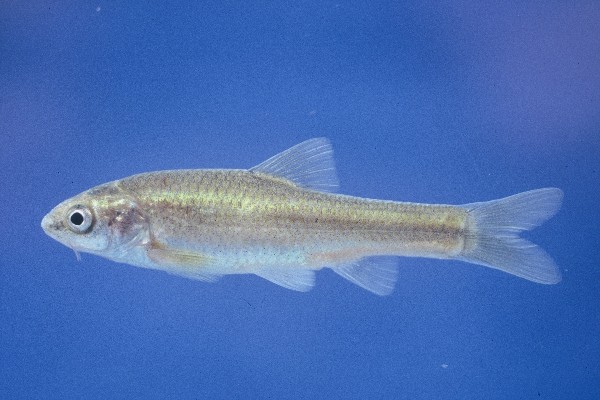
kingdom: Animalia
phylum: Chordata
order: Cypriniformes
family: Cyprinidae
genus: Enteromius
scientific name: Enteromius amatolicus
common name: Amatola barb
